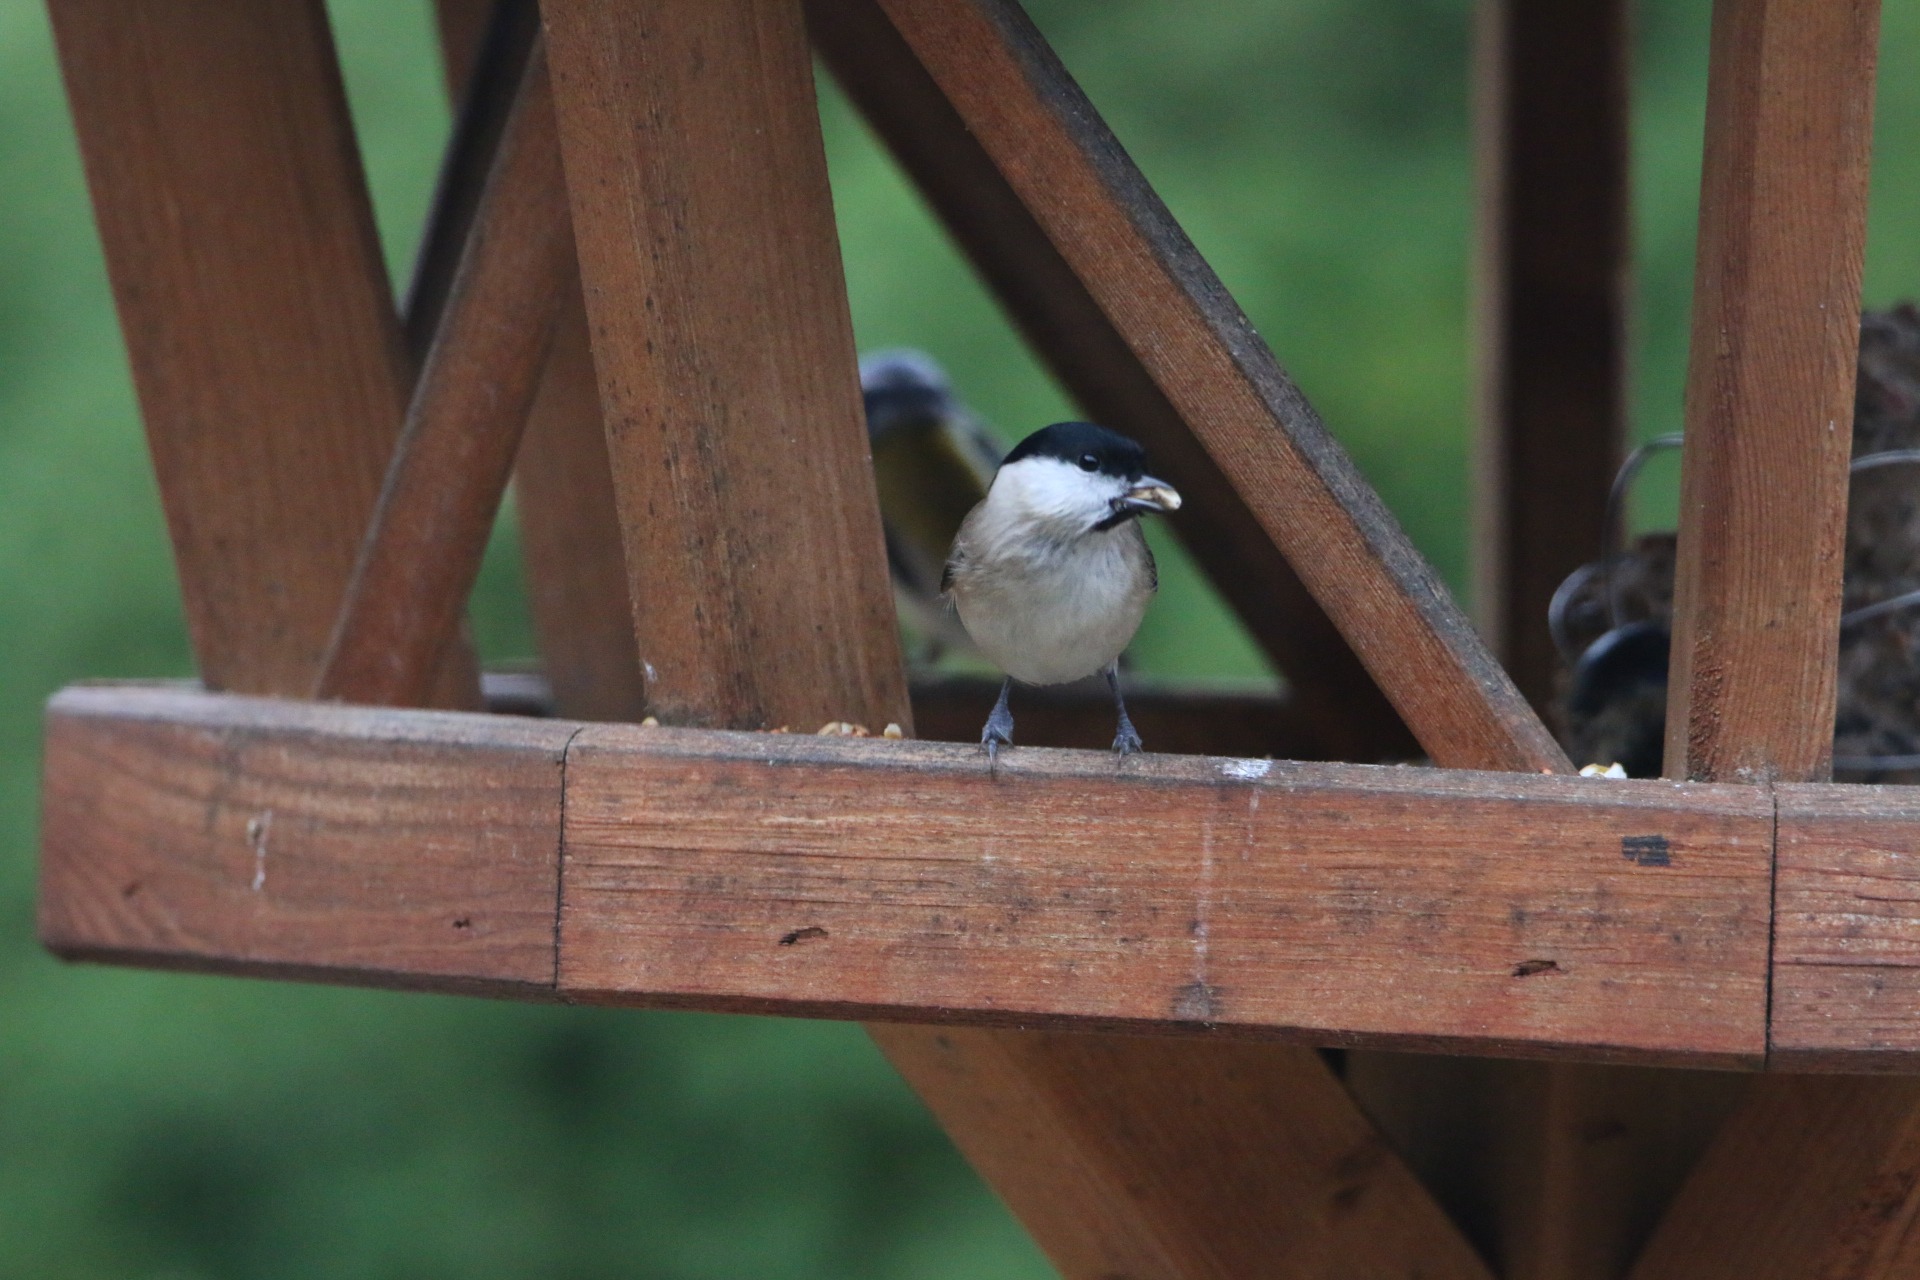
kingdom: Animalia
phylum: Chordata
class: Aves
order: Passeriformes
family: Paridae
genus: Poecile
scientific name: Poecile palustris
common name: Sumpmejse
